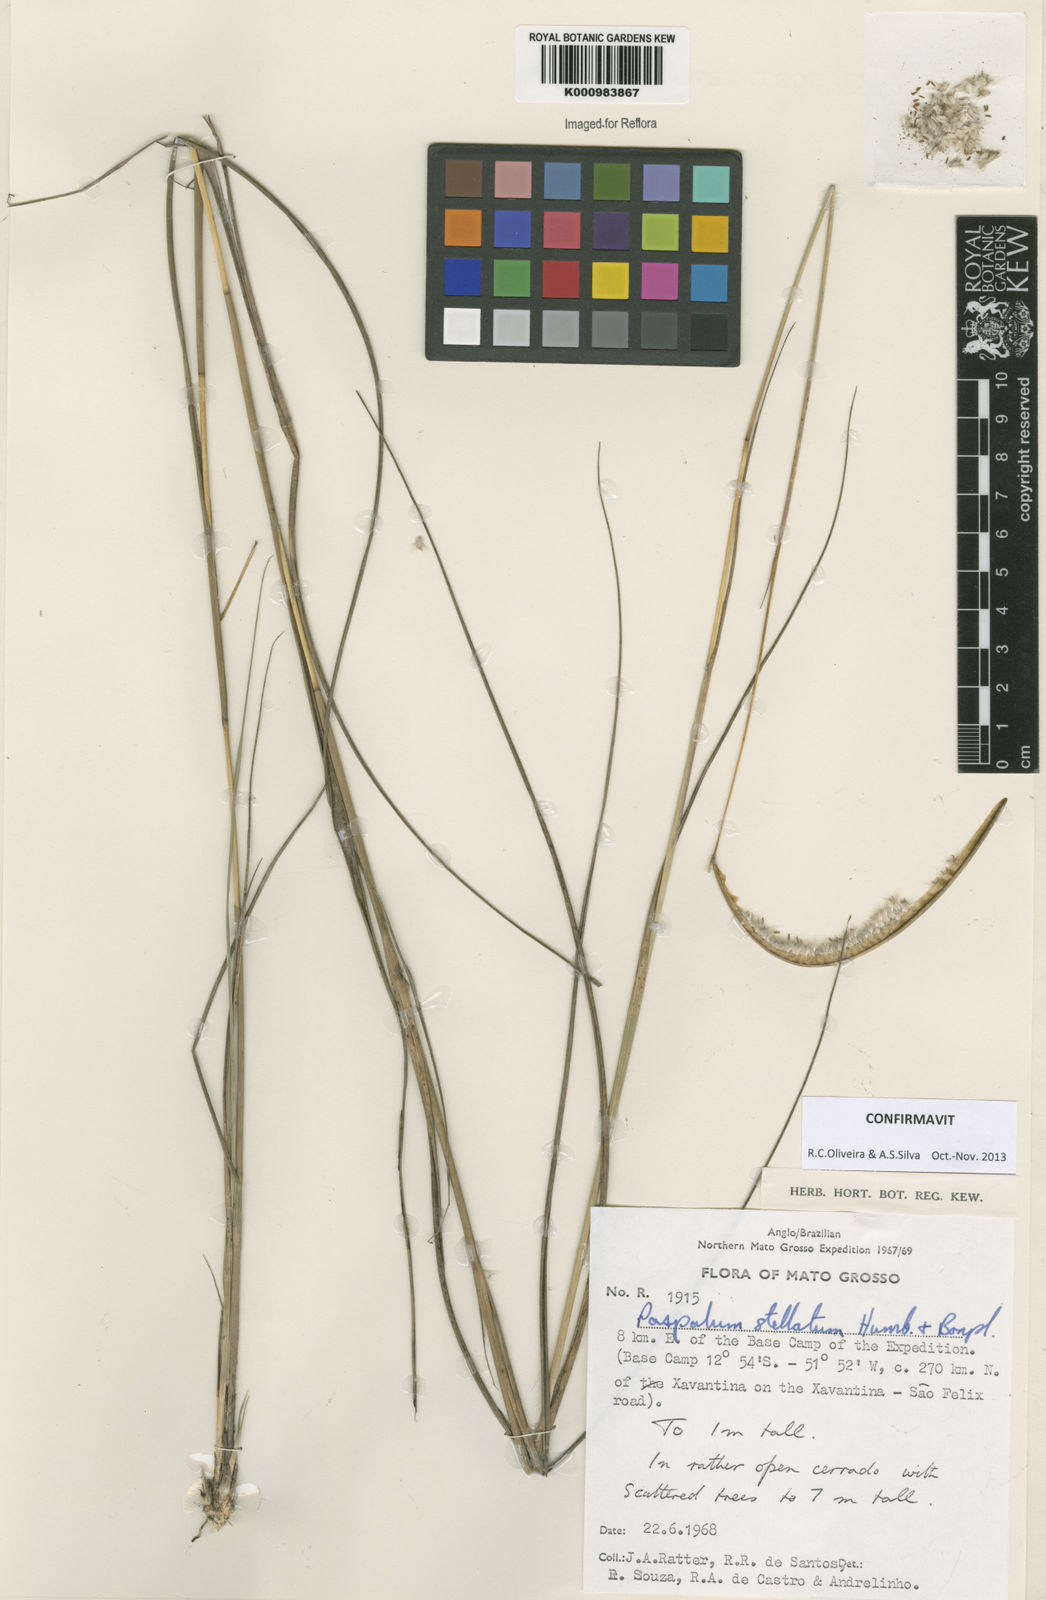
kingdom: Plantae
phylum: Tracheophyta
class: Liliopsida
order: Poales
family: Poaceae
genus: Paspalum
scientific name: Paspalum
